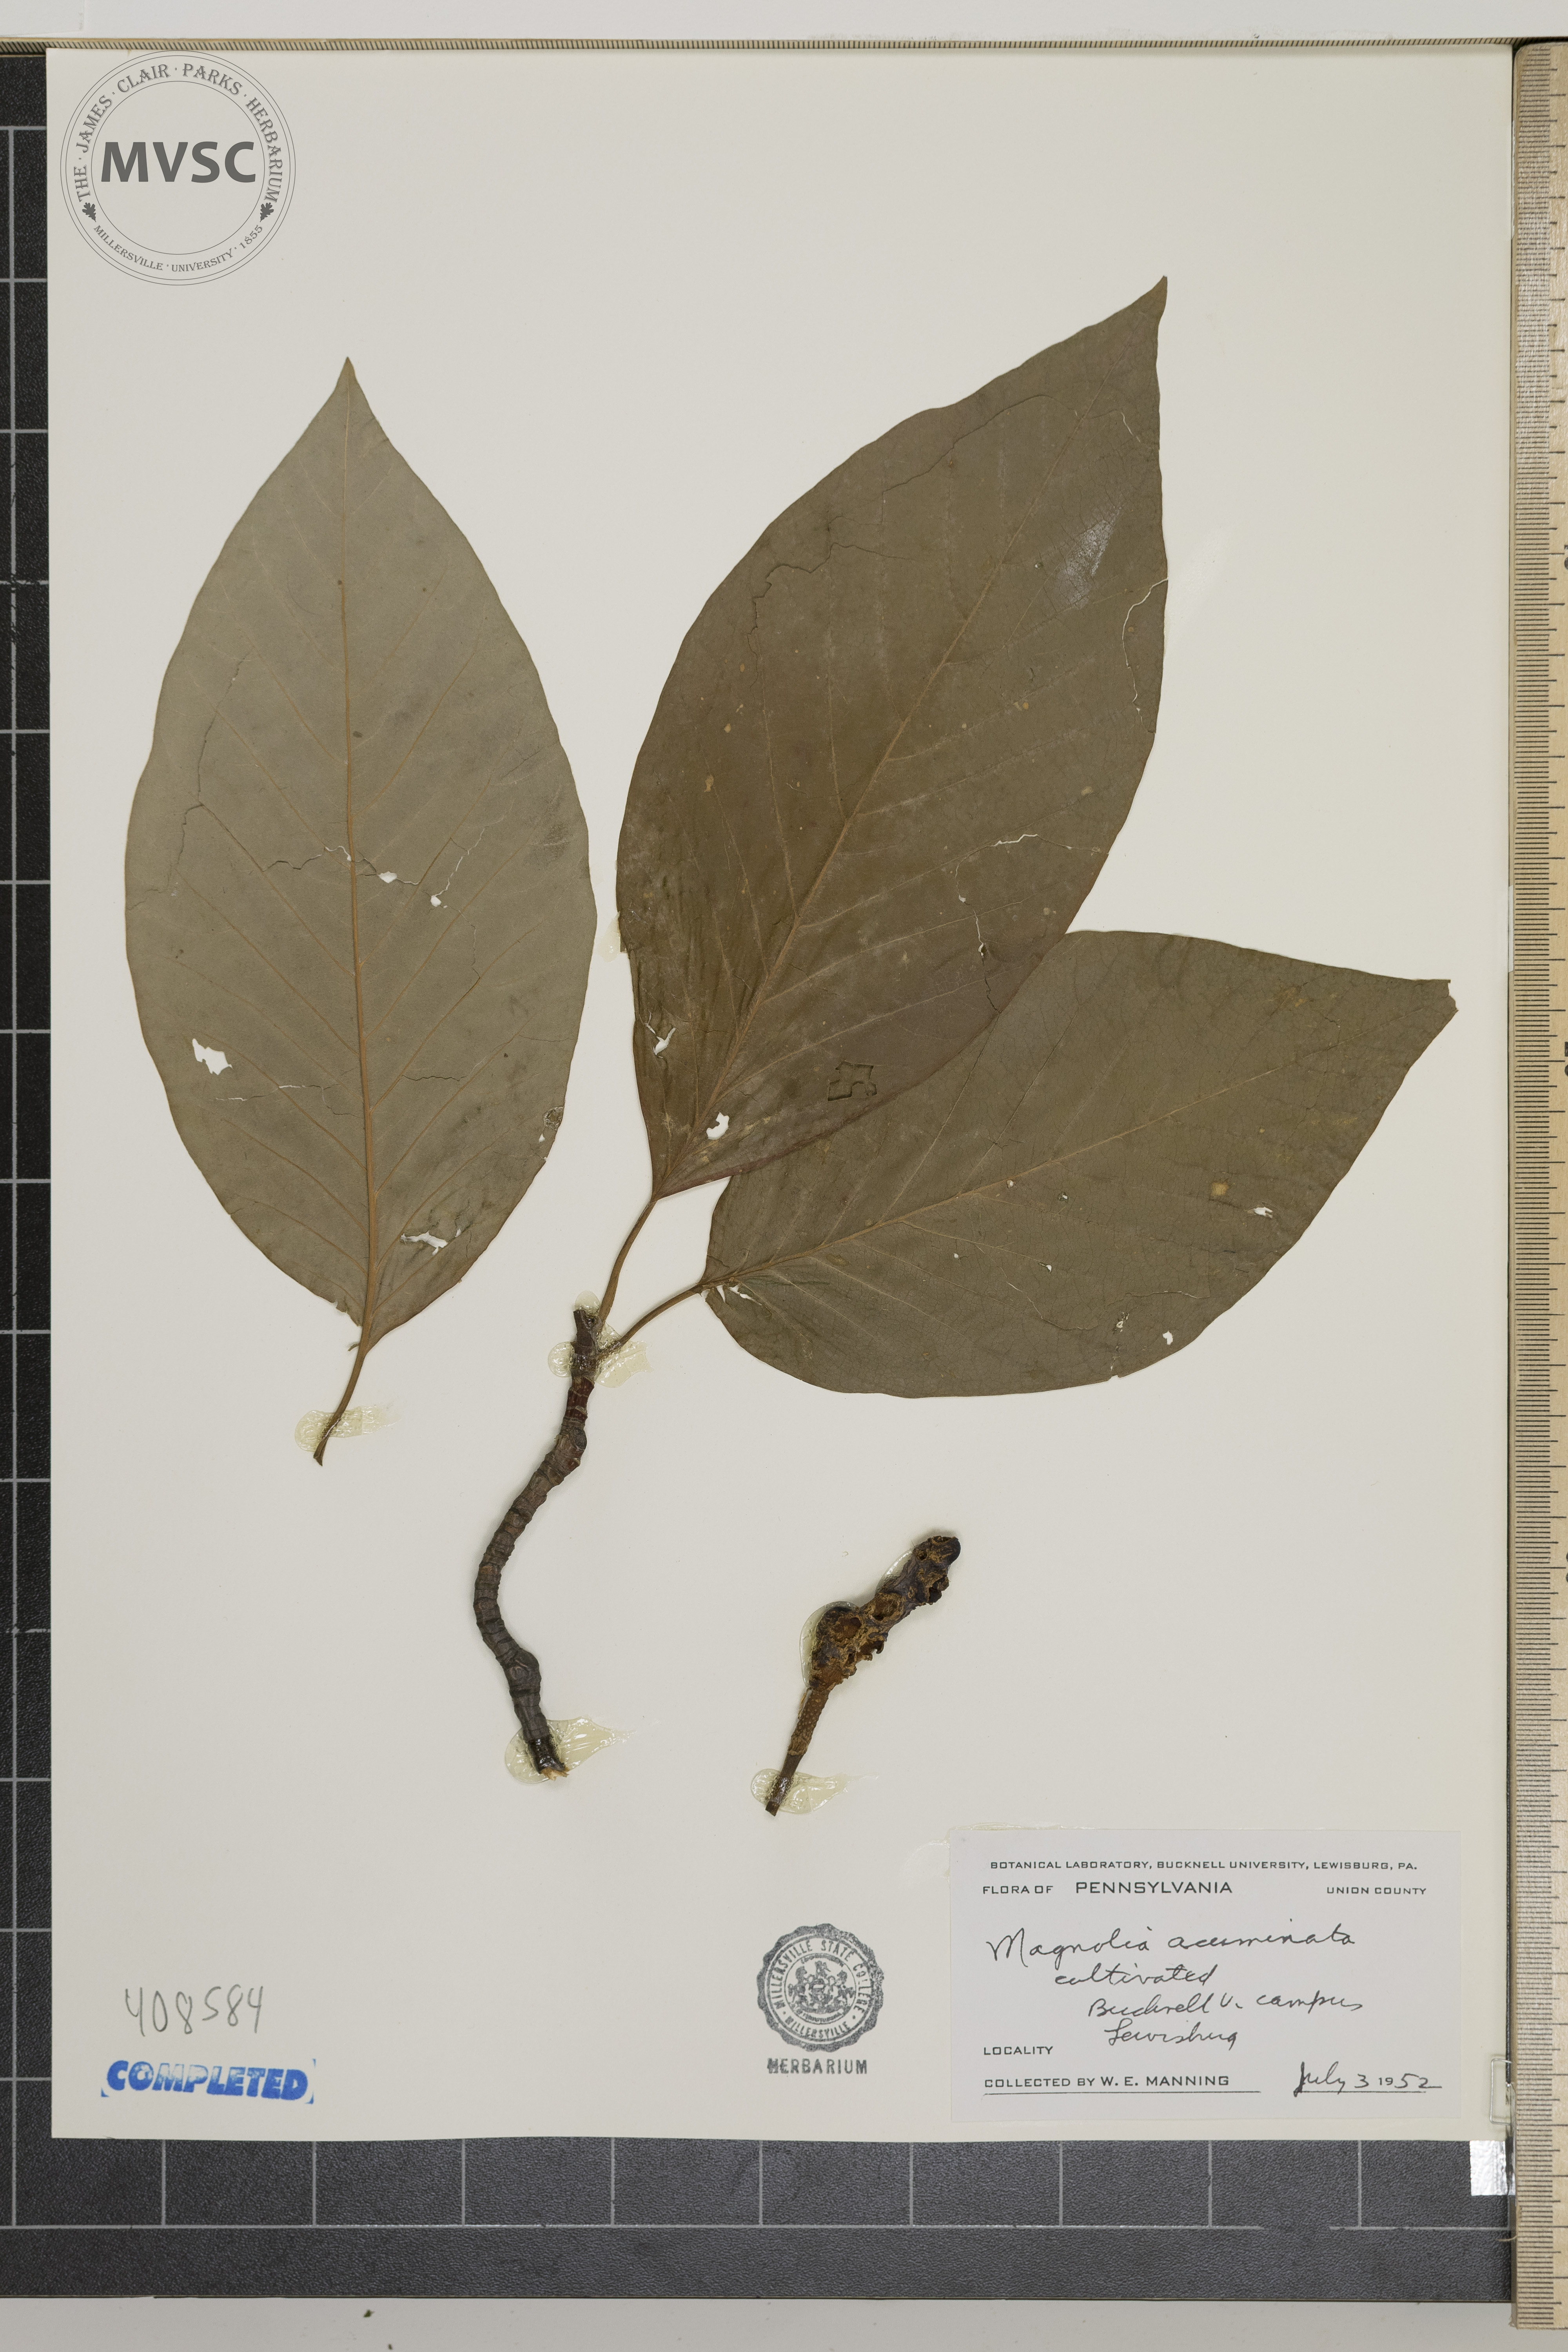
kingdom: Plantae
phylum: Tracheophyta
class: Magnoliopsida
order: Magnoliales
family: Magnoliaceae
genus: Magnolia
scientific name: Magnolia acuminata
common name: cucumber magnolia
